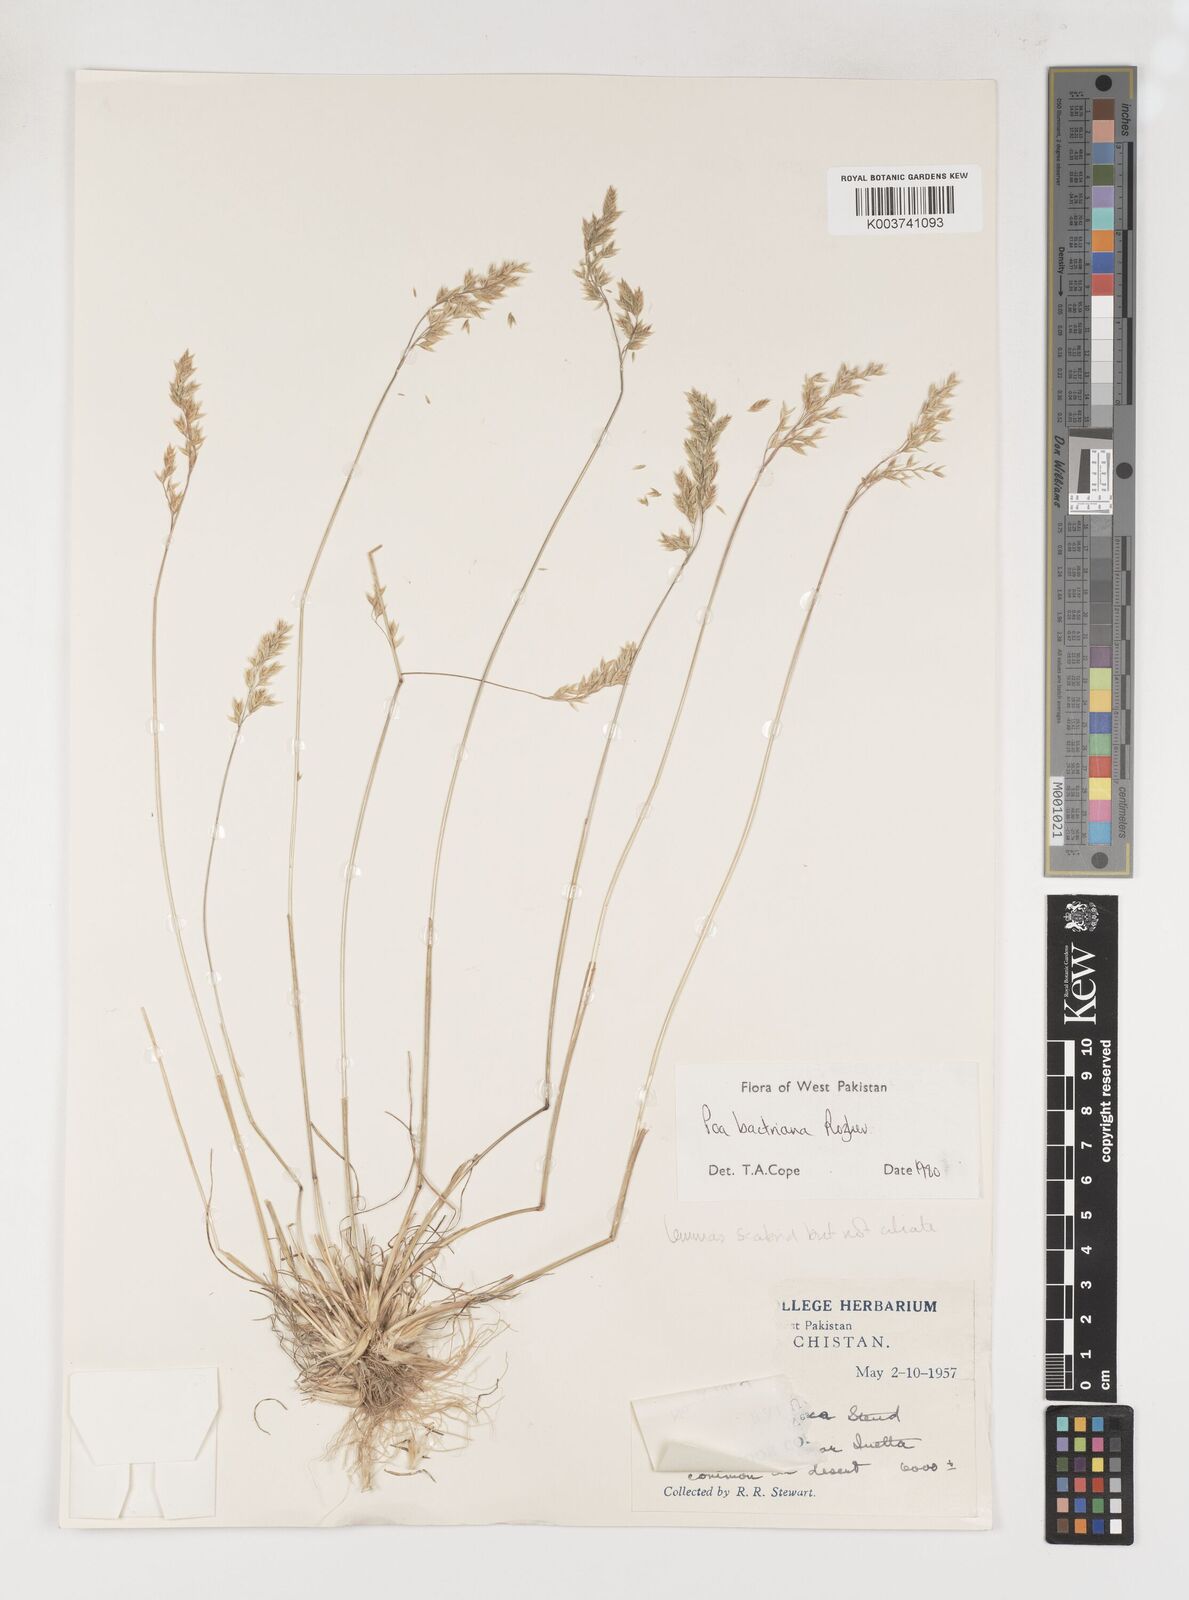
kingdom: Plantae
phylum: Tracheophyta
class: Liliopsida
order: Poales
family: Poaceae
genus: Poa
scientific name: Poa bactriana
